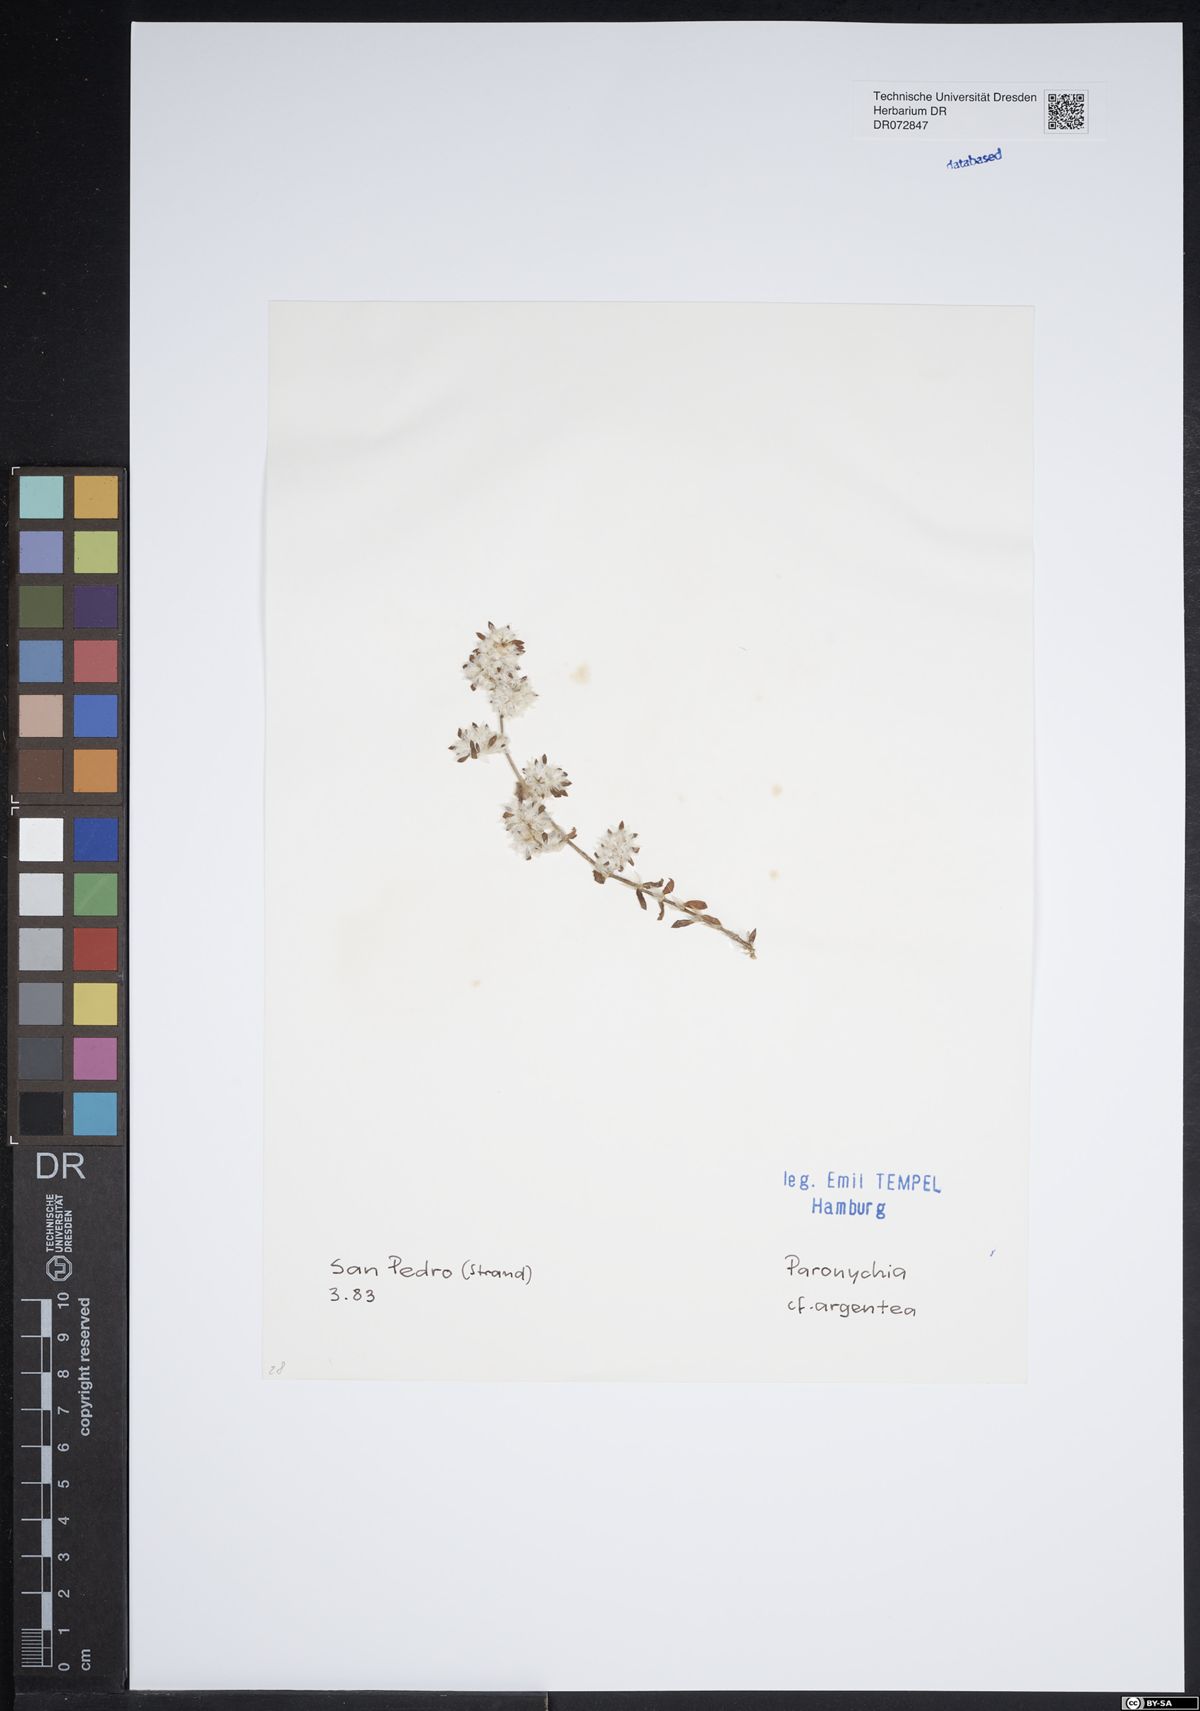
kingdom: Plantae
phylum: Tracheophyta
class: Magnoliopsida
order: Caryophyllales
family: Caryophyllaceae
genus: Paronychia
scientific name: Paronychia argentea
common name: Silver nailroot
